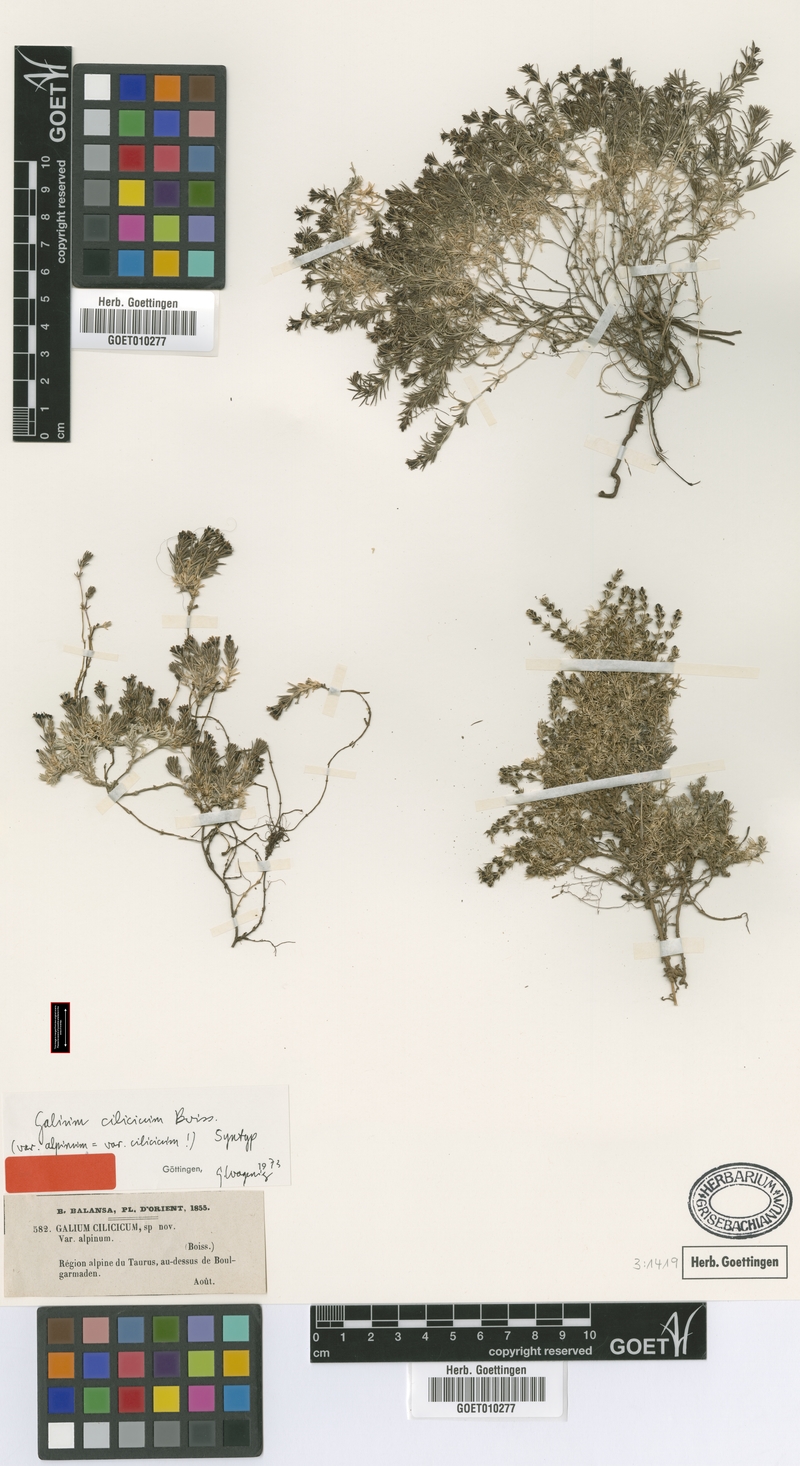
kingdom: Plantae
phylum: Tracheophyta
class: Magnoliopsida
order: Gentianales
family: Rubiaceae
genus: Galium
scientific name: Galium cilicicum
